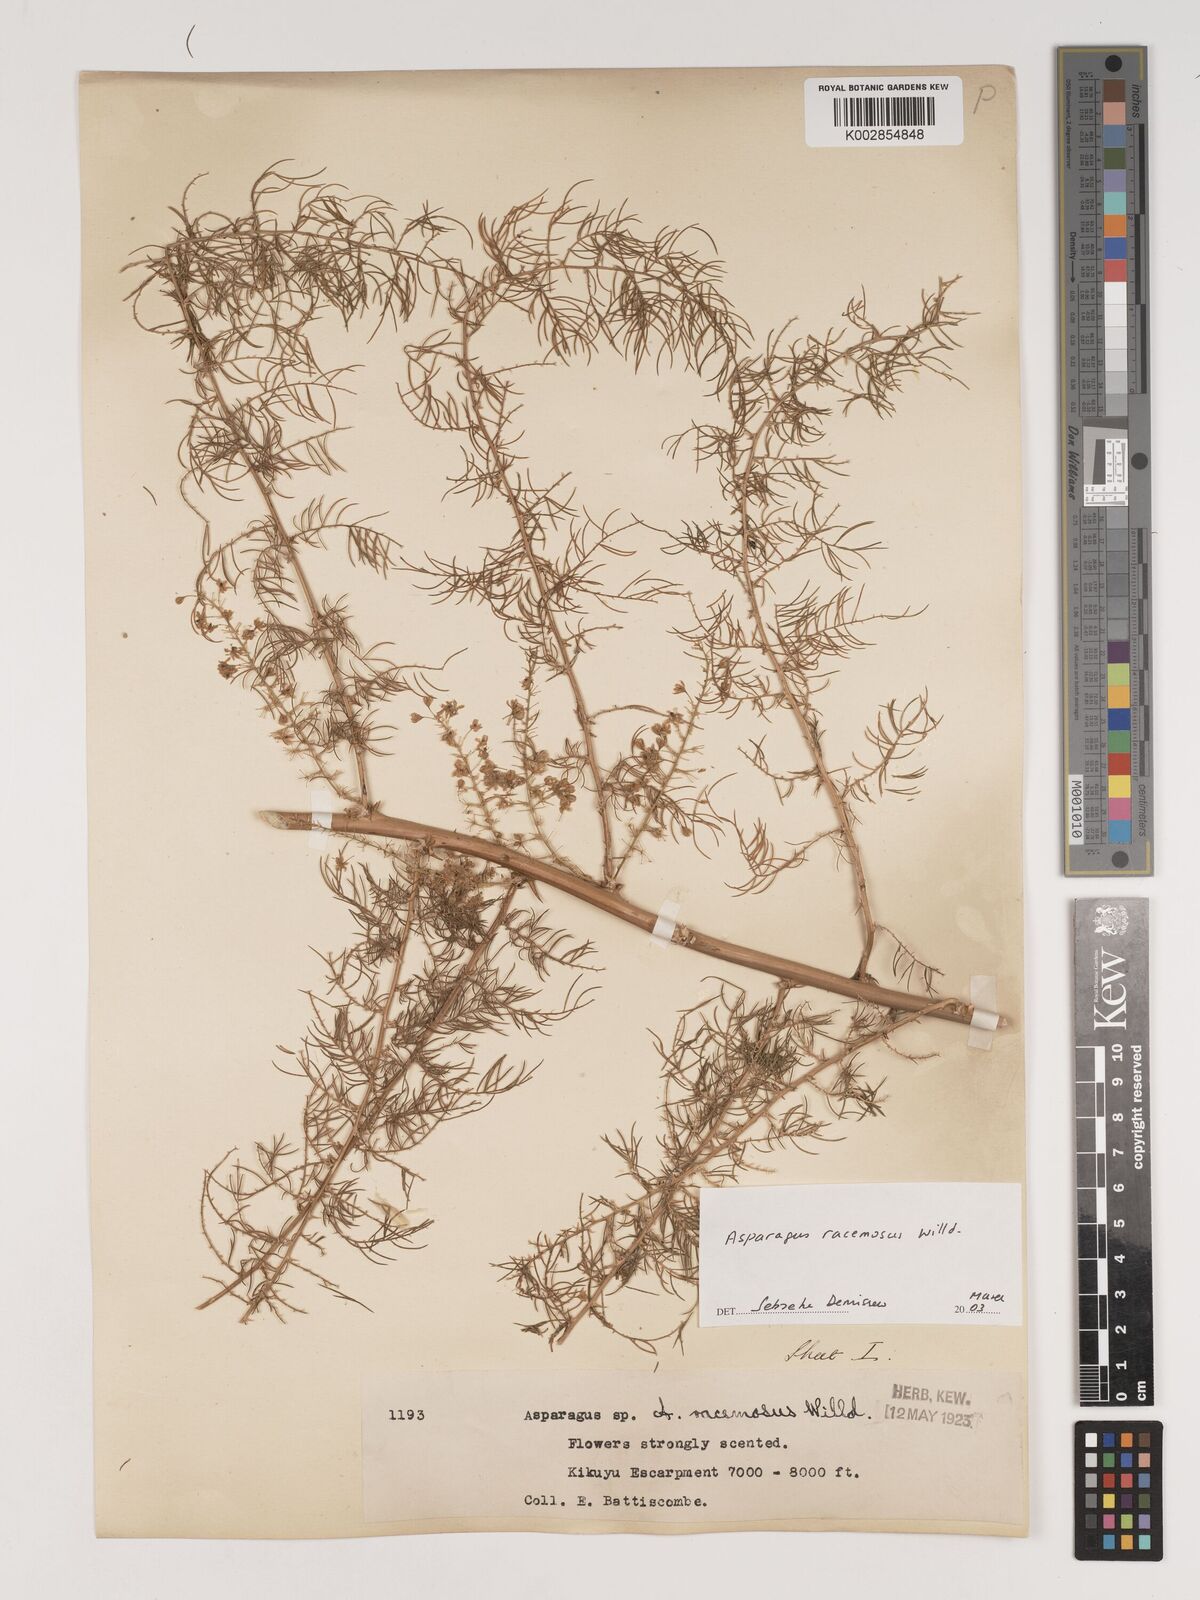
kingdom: Plantae
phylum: Tracheophyta
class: Liliopsida
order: Asparagales
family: Asparagaceae
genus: Asparagus
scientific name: Asparagus racemosus
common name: Asparagus-fern
